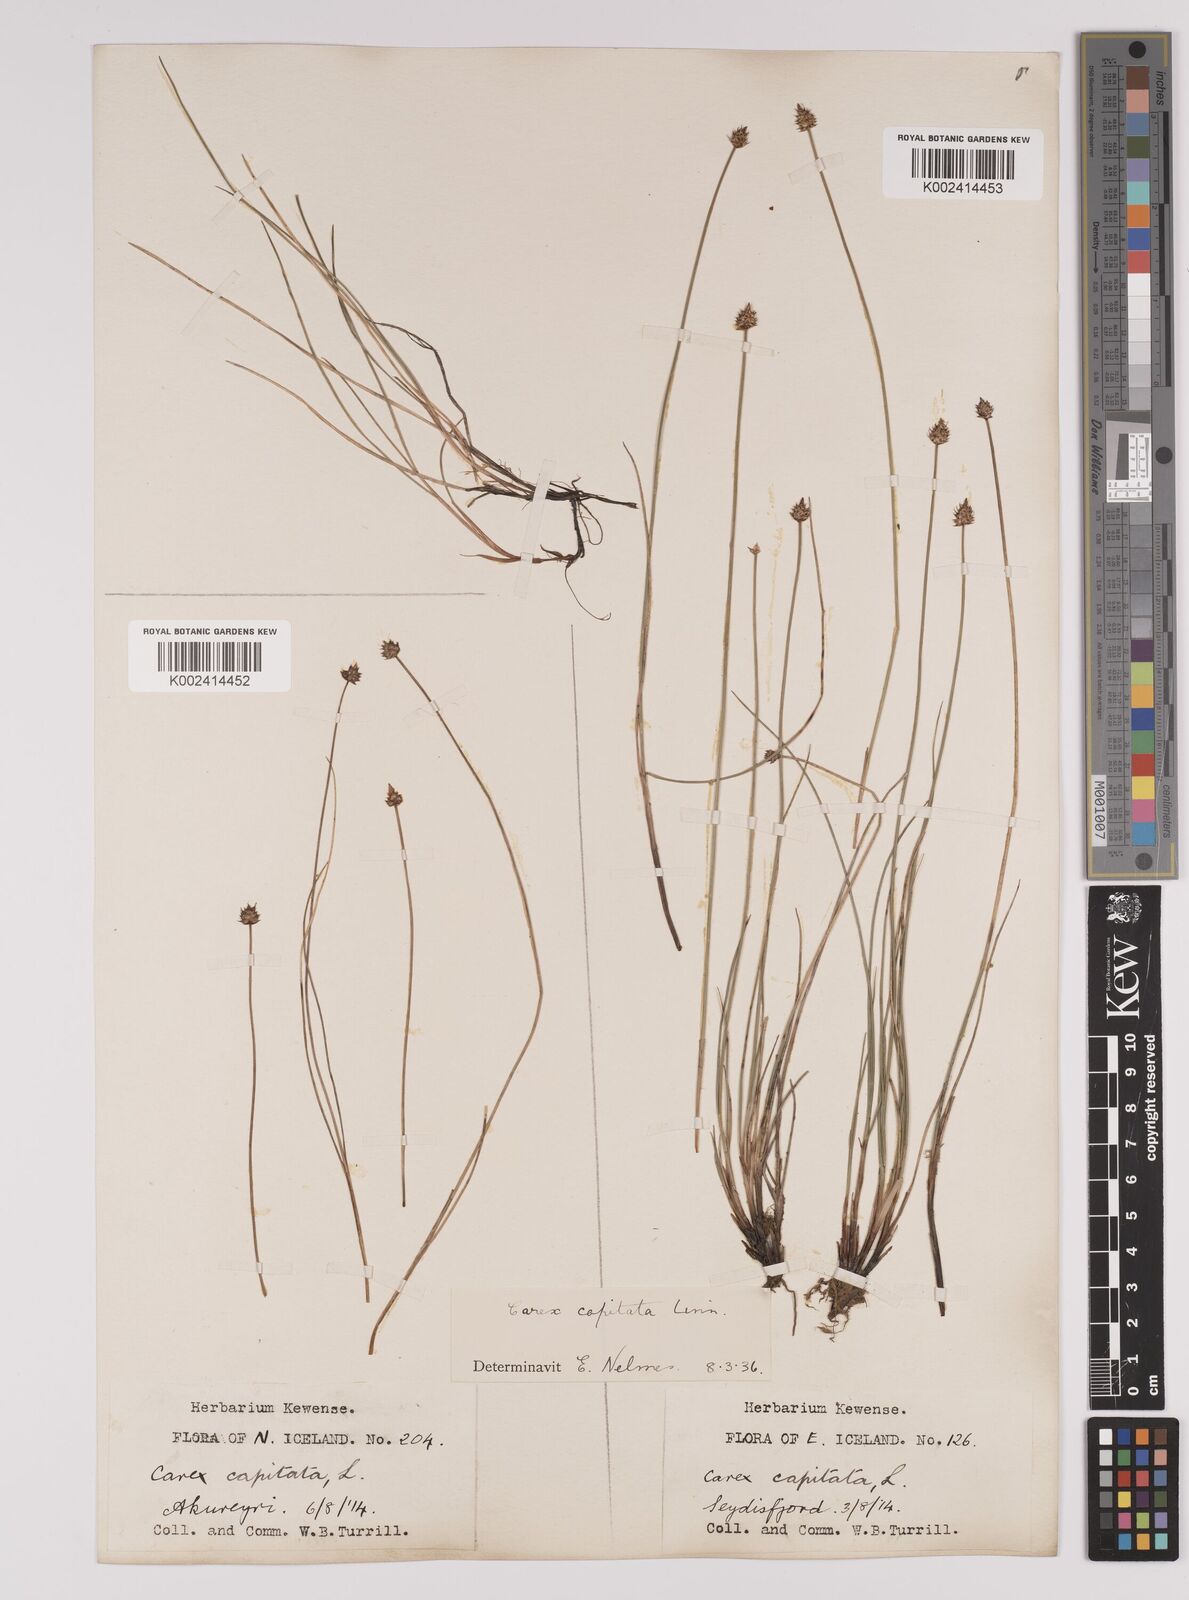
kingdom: Plantae
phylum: Tracheophyta
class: Liliopsida
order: Poales
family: Cyperaceae
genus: Carex
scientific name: Carex capitata
